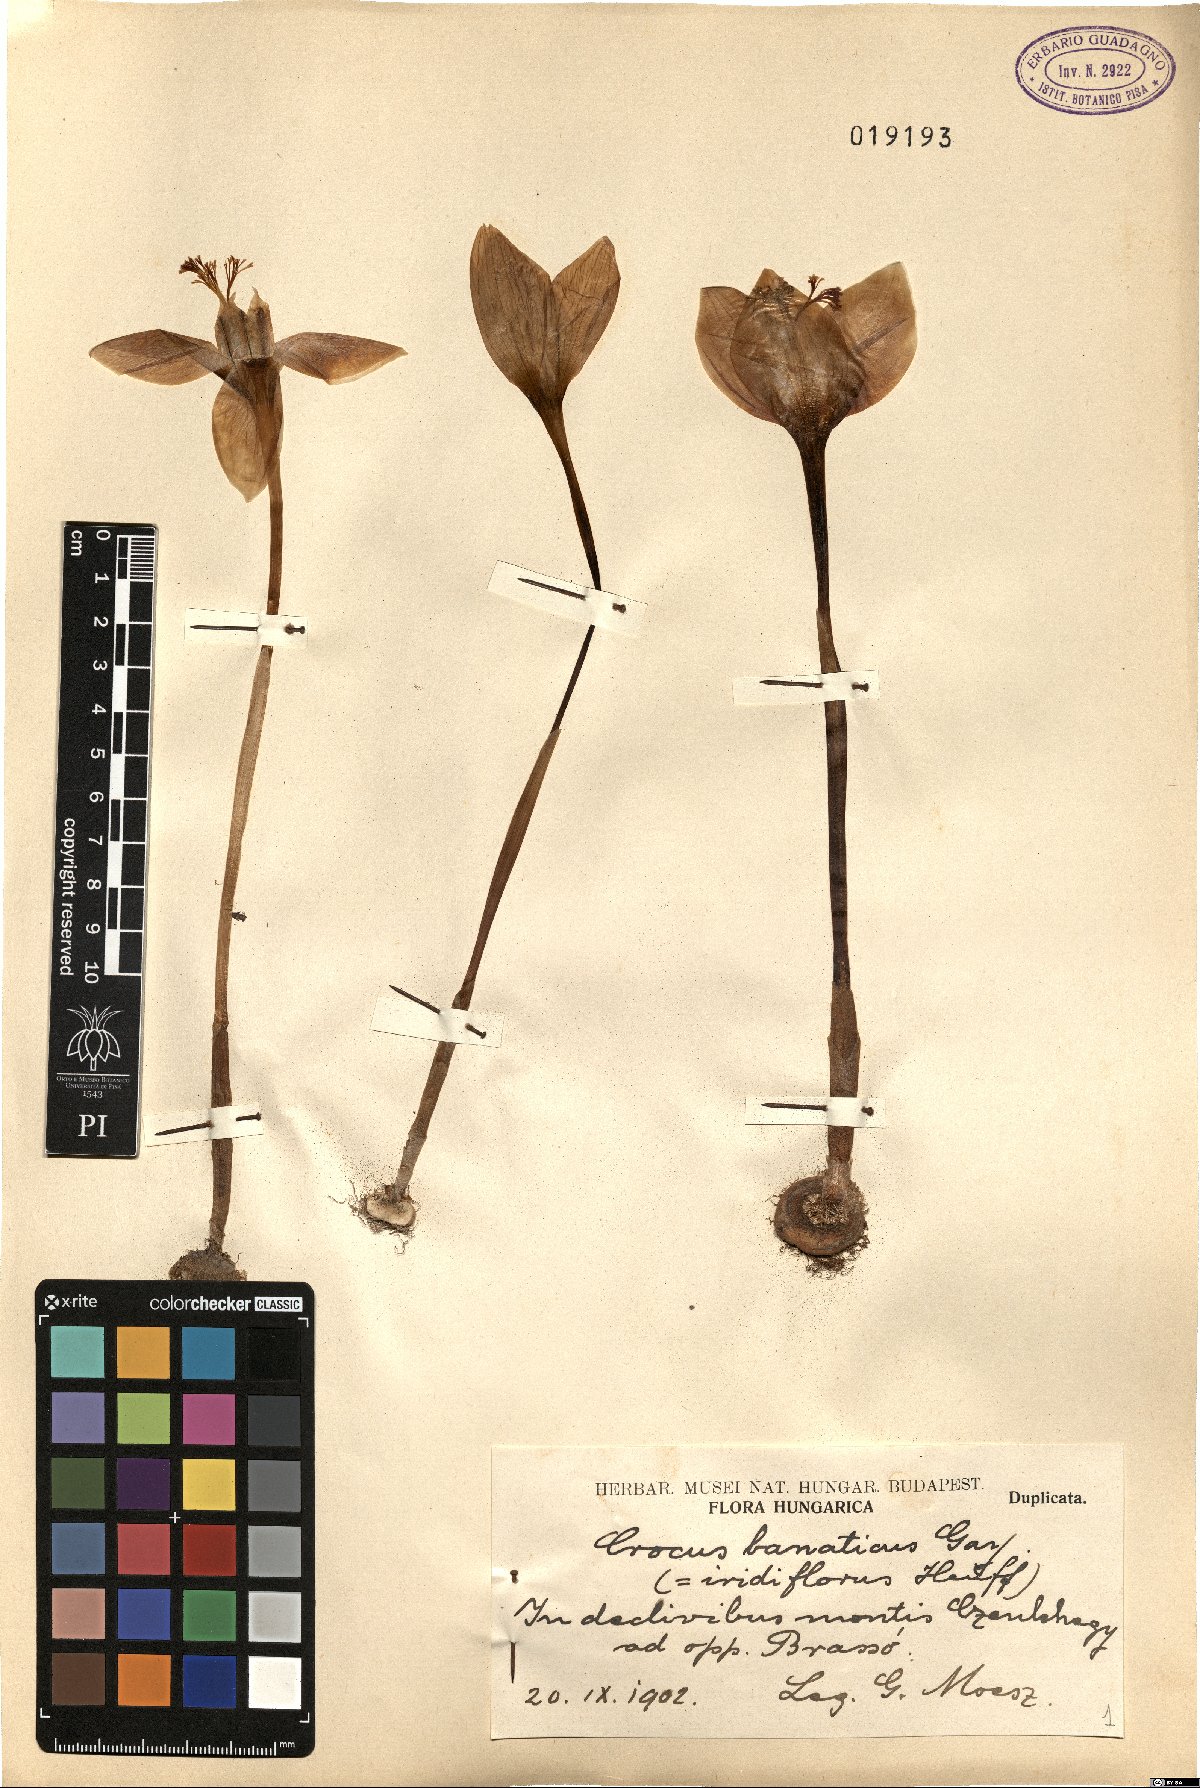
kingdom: Plantae
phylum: Tracheophyta
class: Liliopsida
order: Asparagales
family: Iridaceae
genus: Crocus
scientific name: Crocus banaticus
